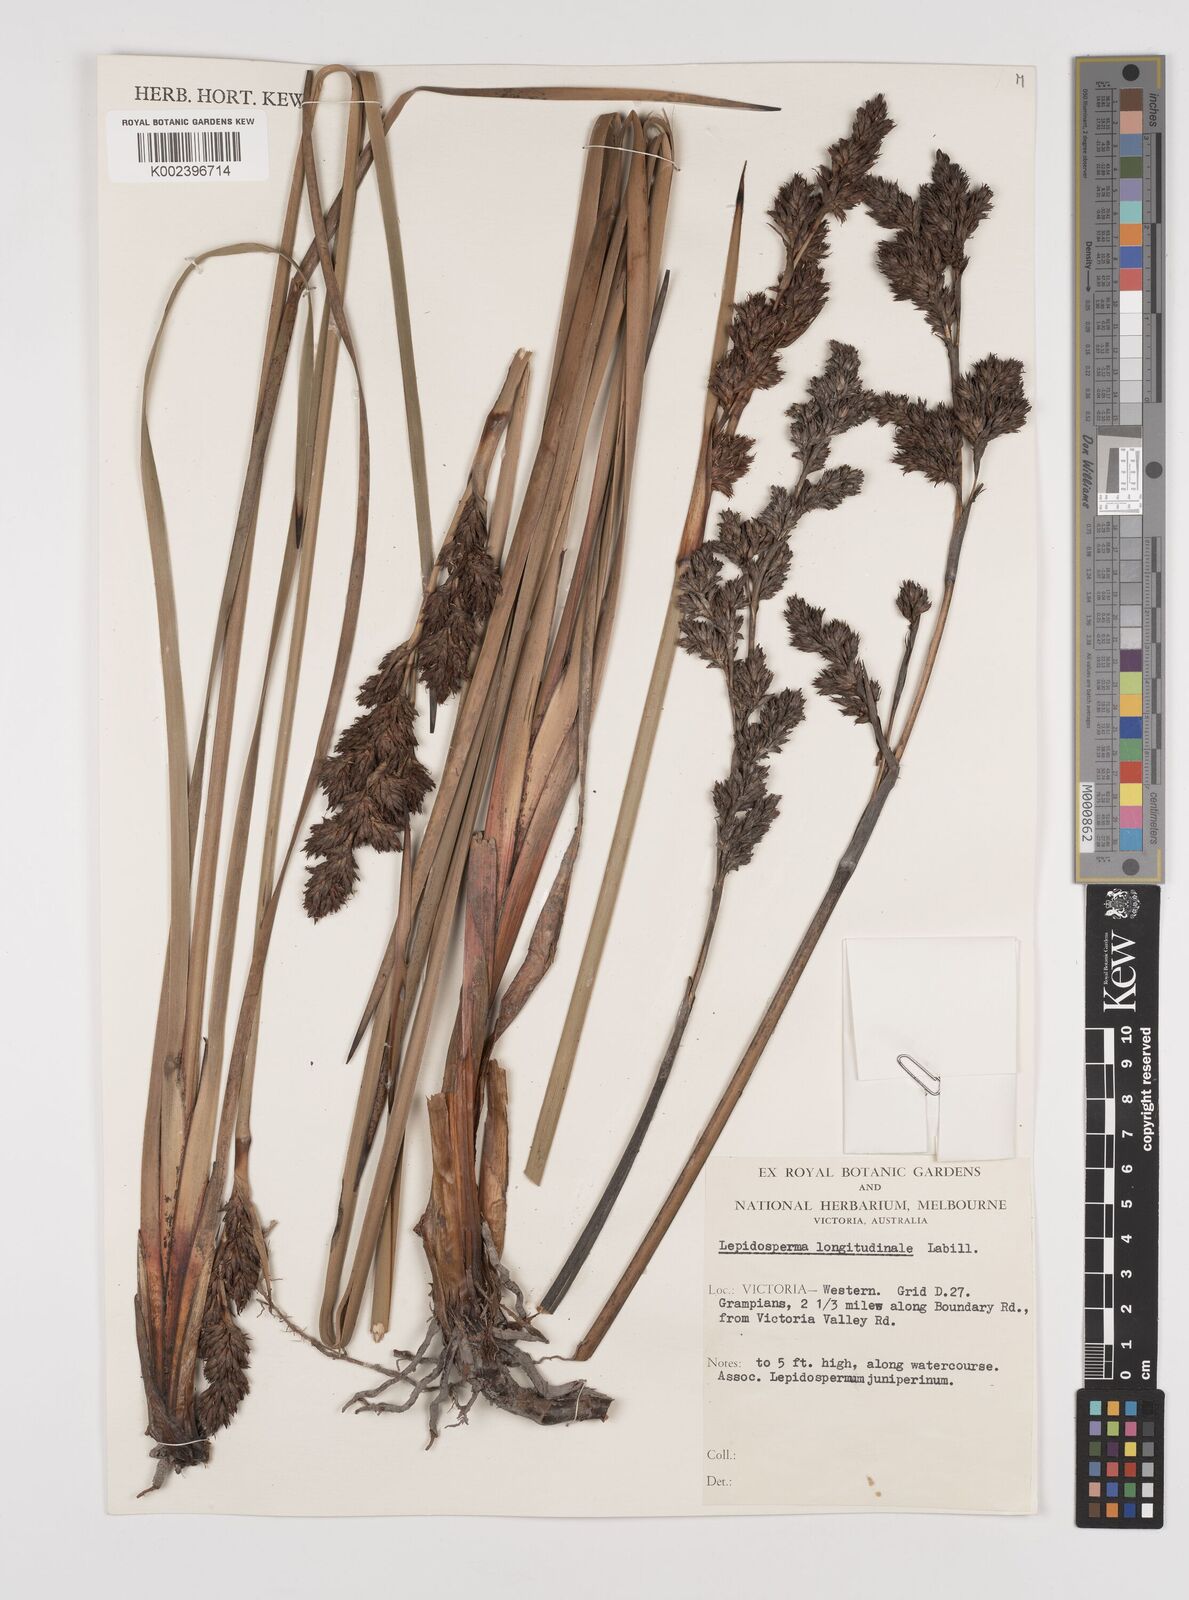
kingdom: Plantae
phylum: Tracheophyta
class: Liliopsida
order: Poales
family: Cyperaceae
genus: Lepidosperma
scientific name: Lepidosperma longitudinale
